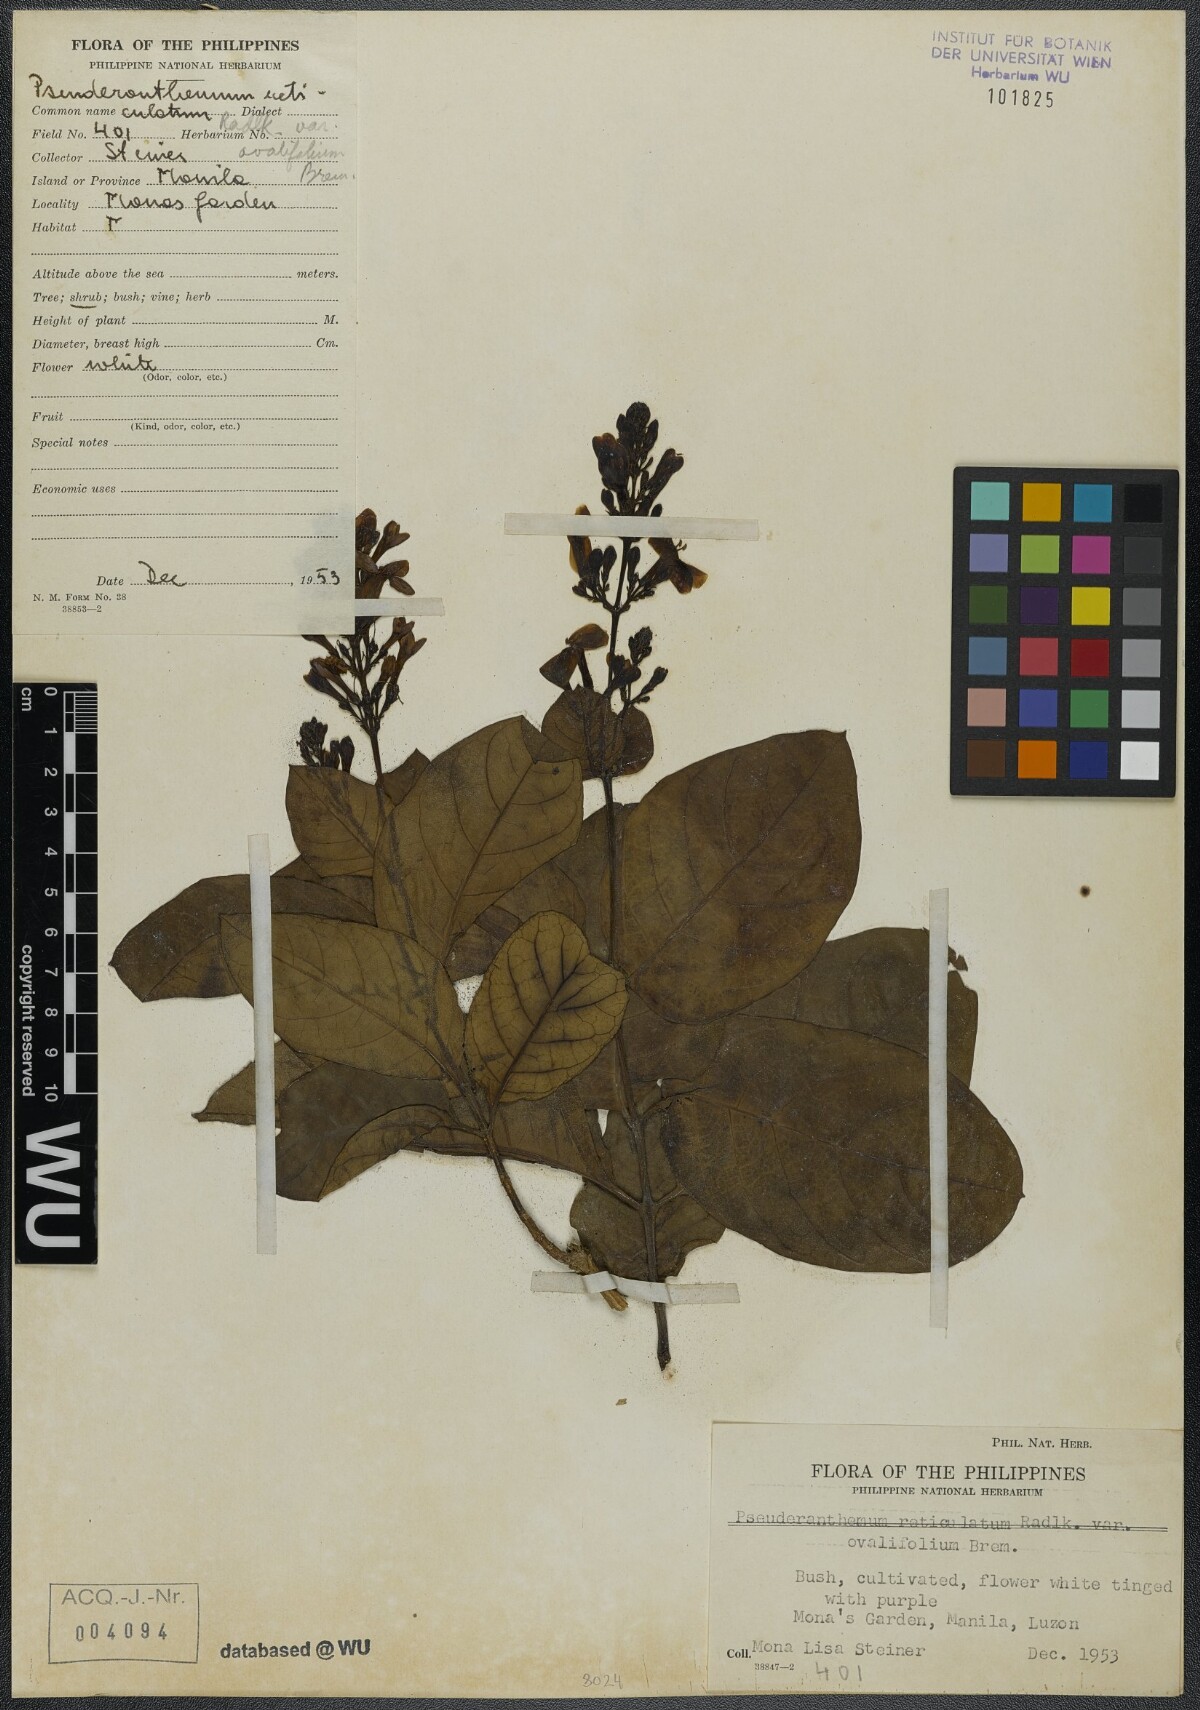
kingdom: Plantae
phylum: Tracheophyta
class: Magnoliopsida
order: Lamiales
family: Acanthaceae
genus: Pseuderanthemum
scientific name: Pseuderanthemum maculatum
